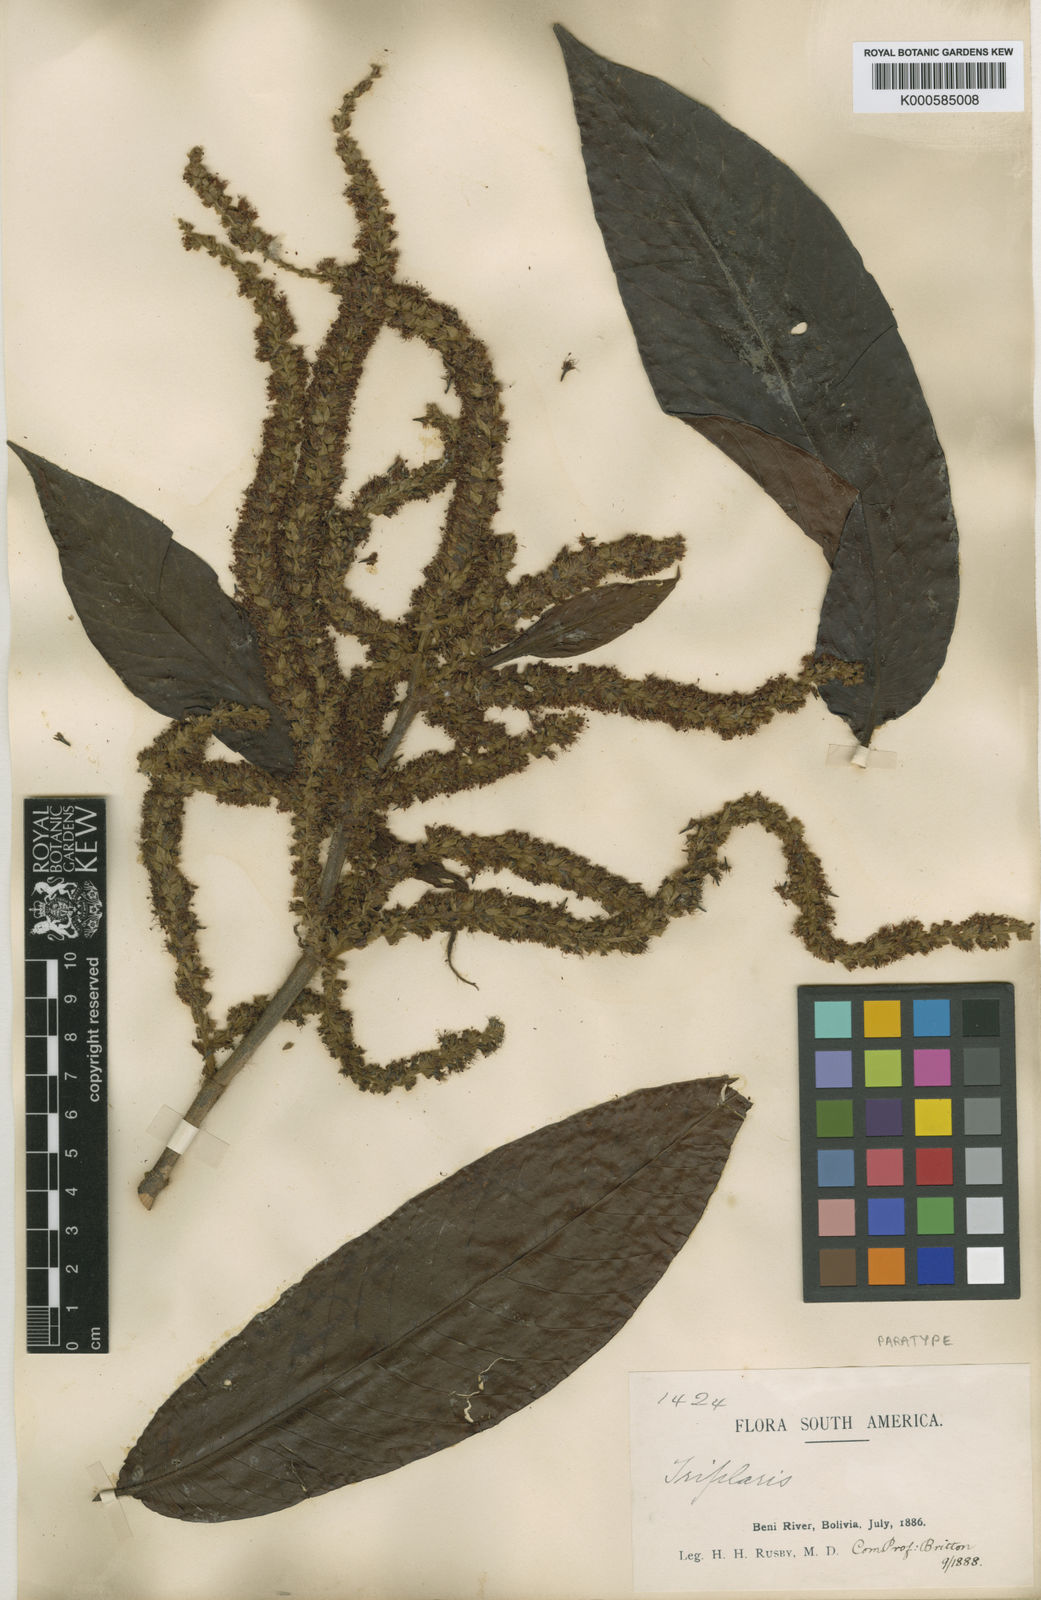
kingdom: Plantae
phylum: Tracheophyta
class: Magnoliopsida
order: Caryophyllales
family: Polygonaceae
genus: Triplaris
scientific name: Triplaris poeppigiana
